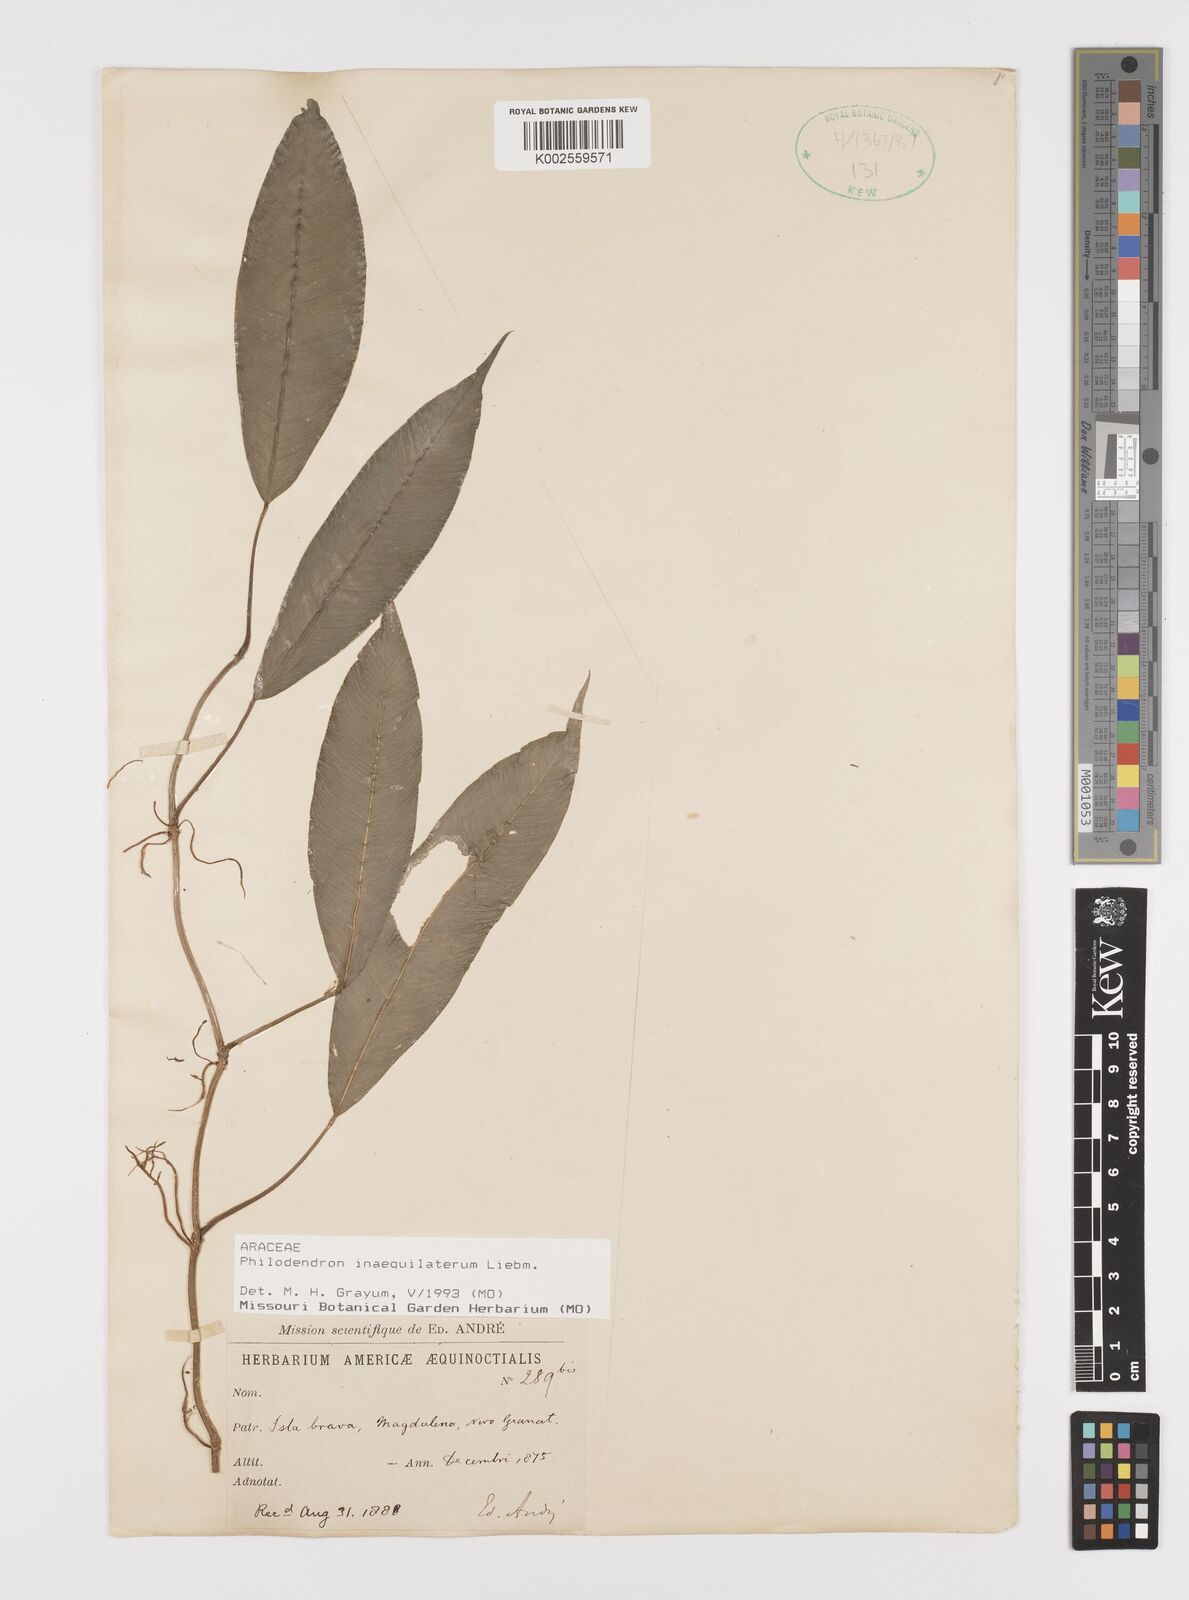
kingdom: Plantae
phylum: Tracheophyta
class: Liliopsida
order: Alismatales
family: Araceae
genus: Philodendron
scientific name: Philodendron inaequilaterum
